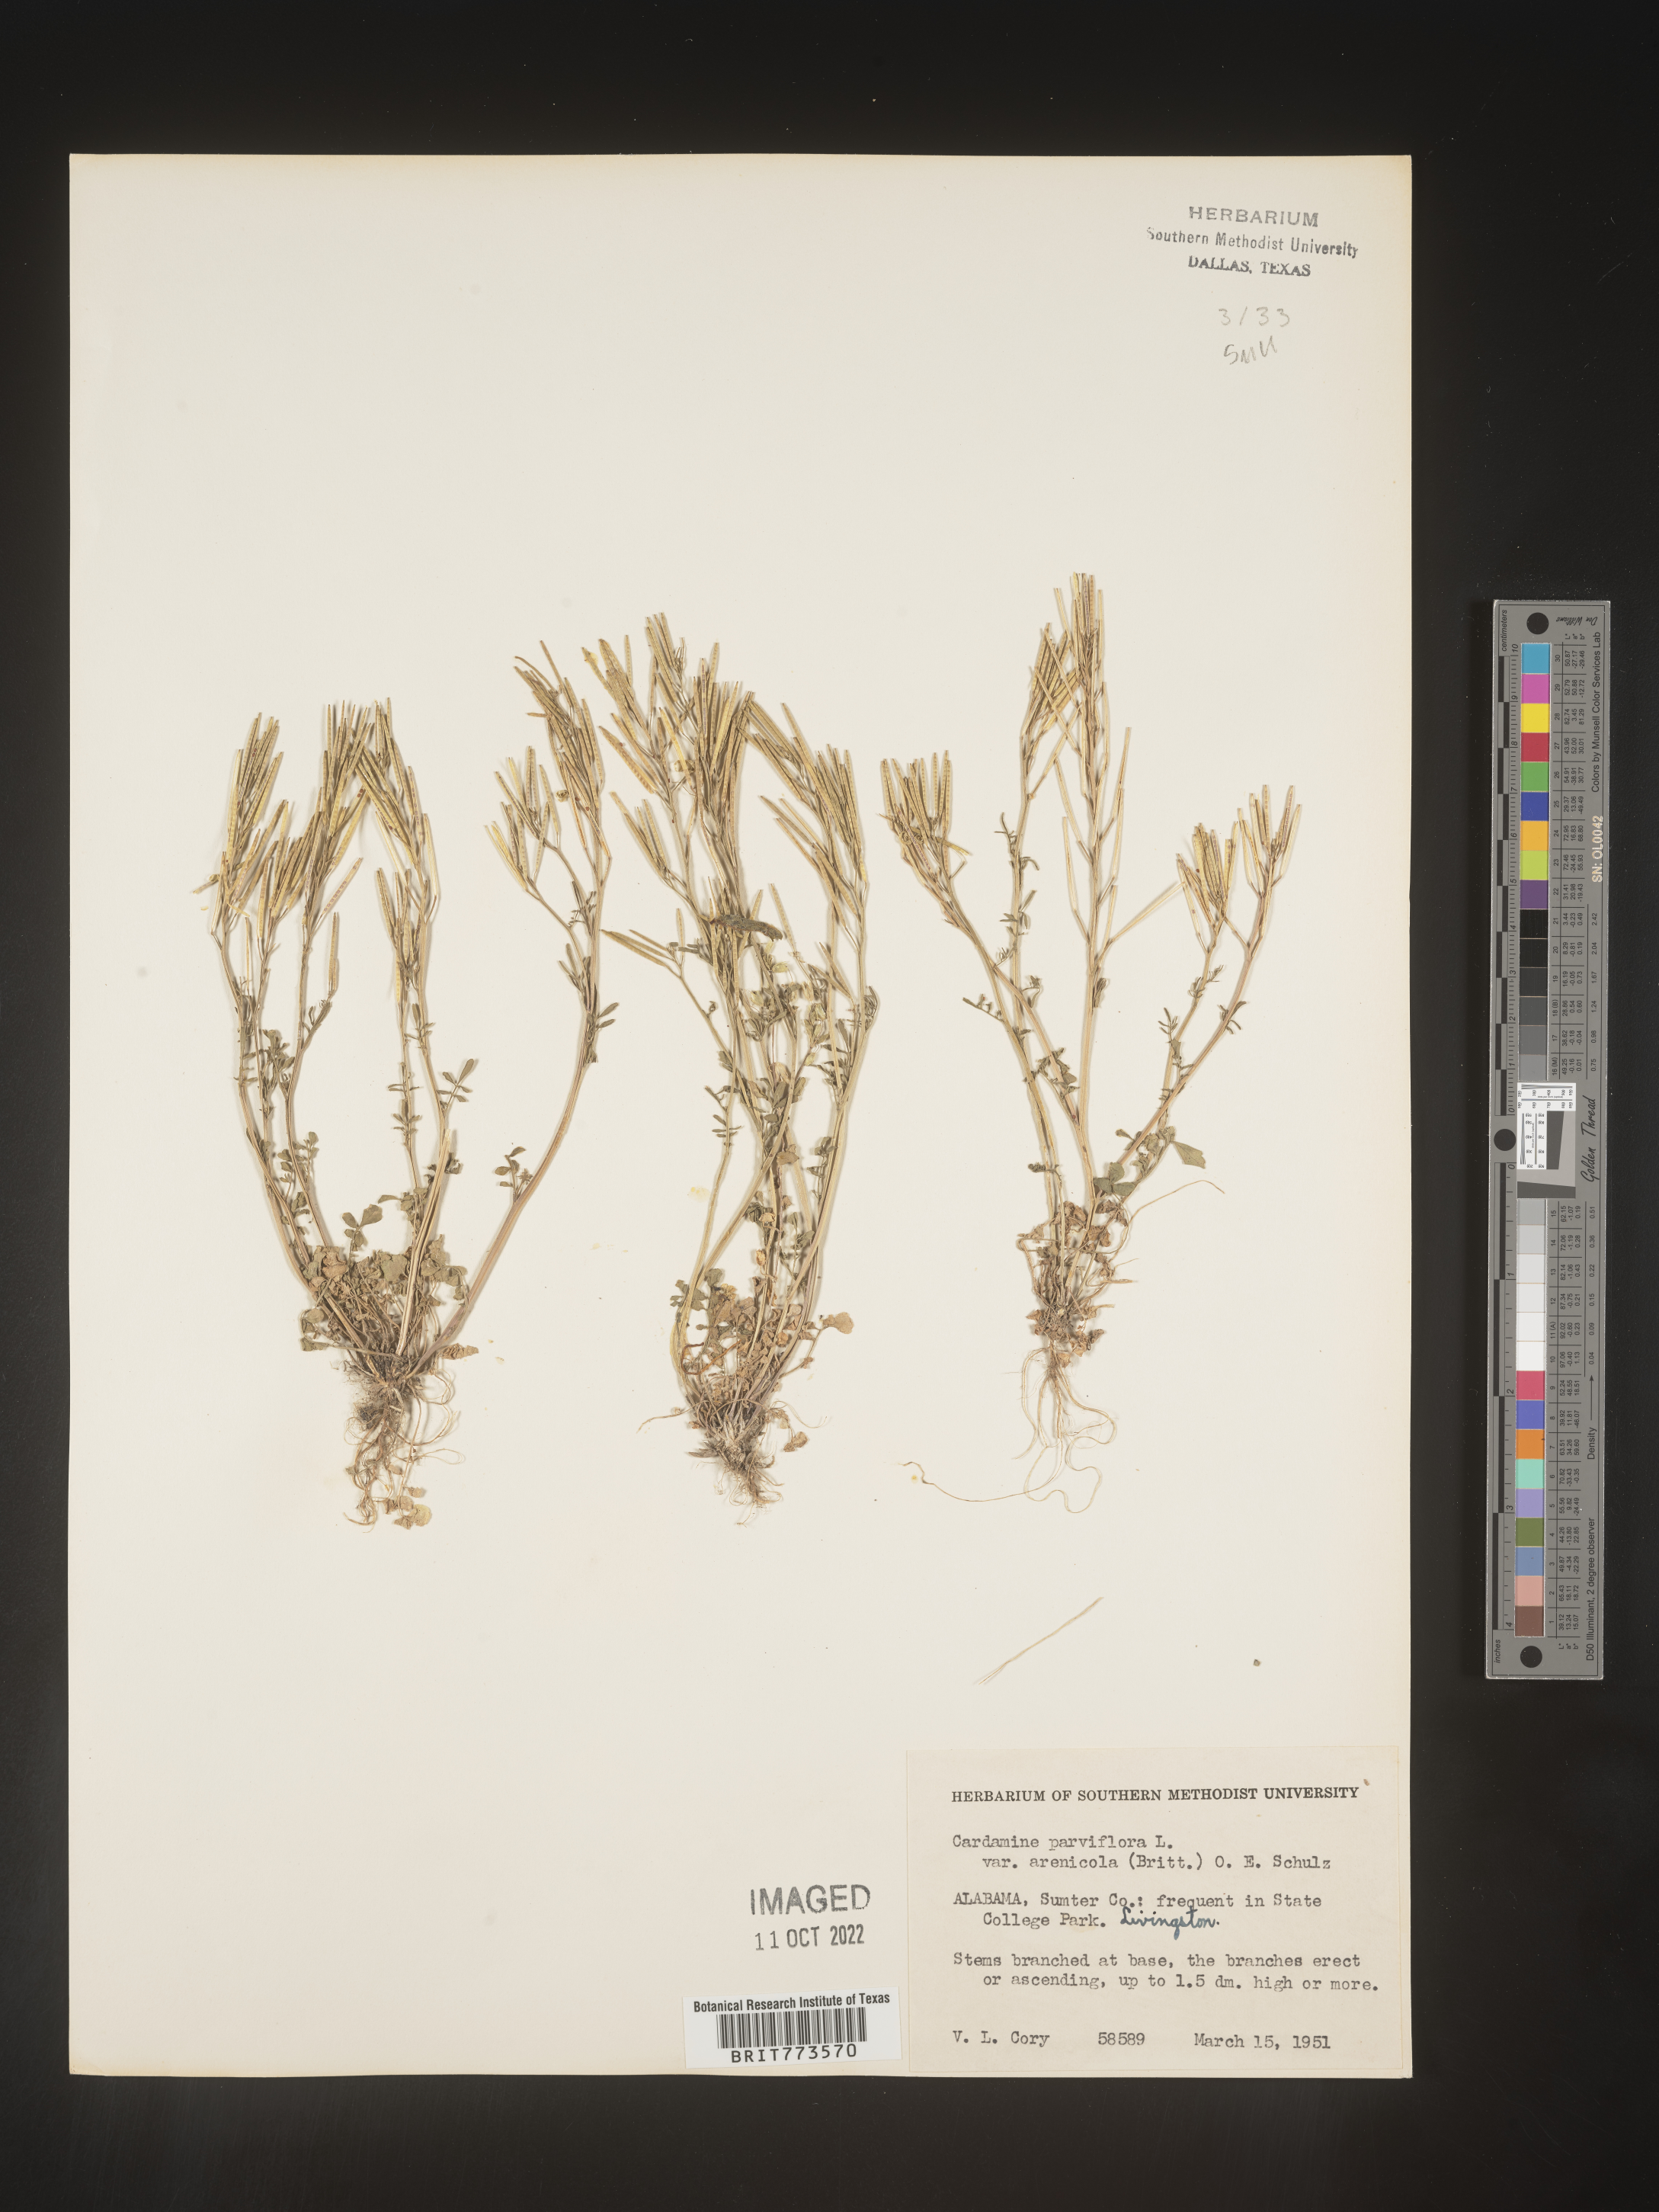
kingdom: Plantae
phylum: Tracheophyta
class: Magnoliopsida
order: Brassicales
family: Brassicaceae
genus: Cardamine
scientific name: Cardamine parviflora
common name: Sand bittercress
